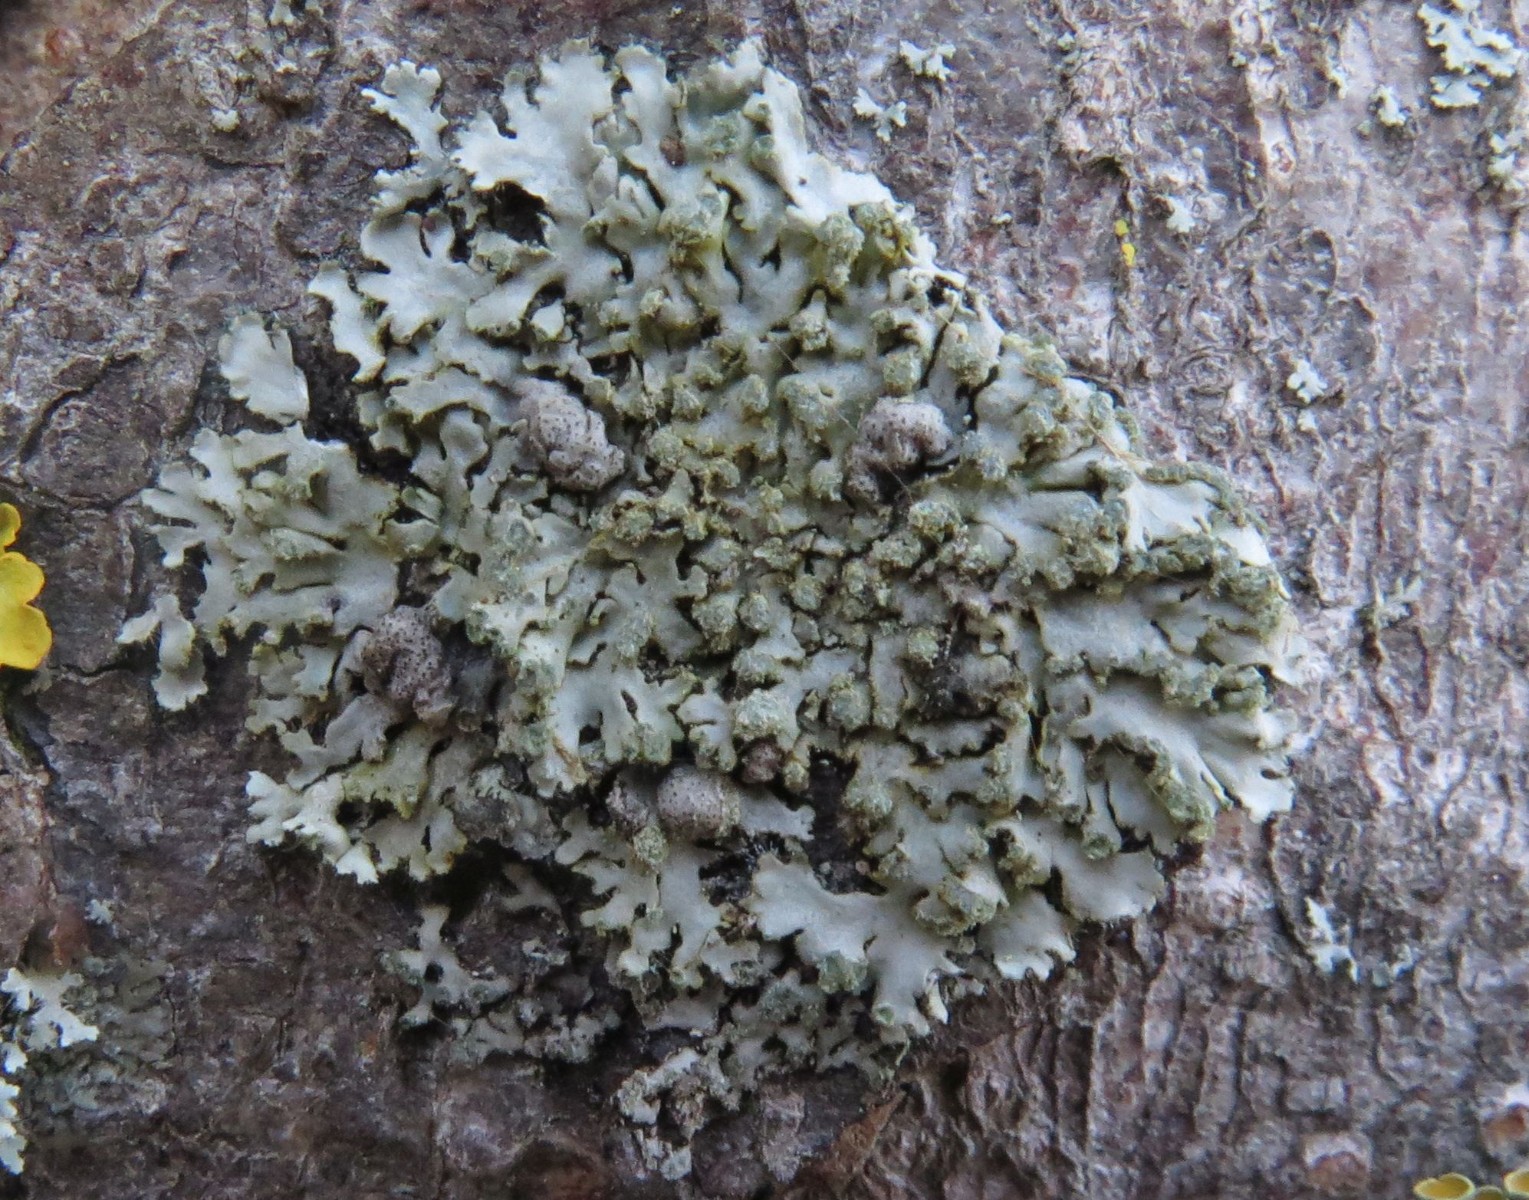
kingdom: Fungi
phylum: Ascomycota
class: Lecanoromycetes
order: Caliciales
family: Physciaceae
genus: Phaeophyscia
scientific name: Phaeophyscia orbicularis
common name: grågrøn rosetlav
